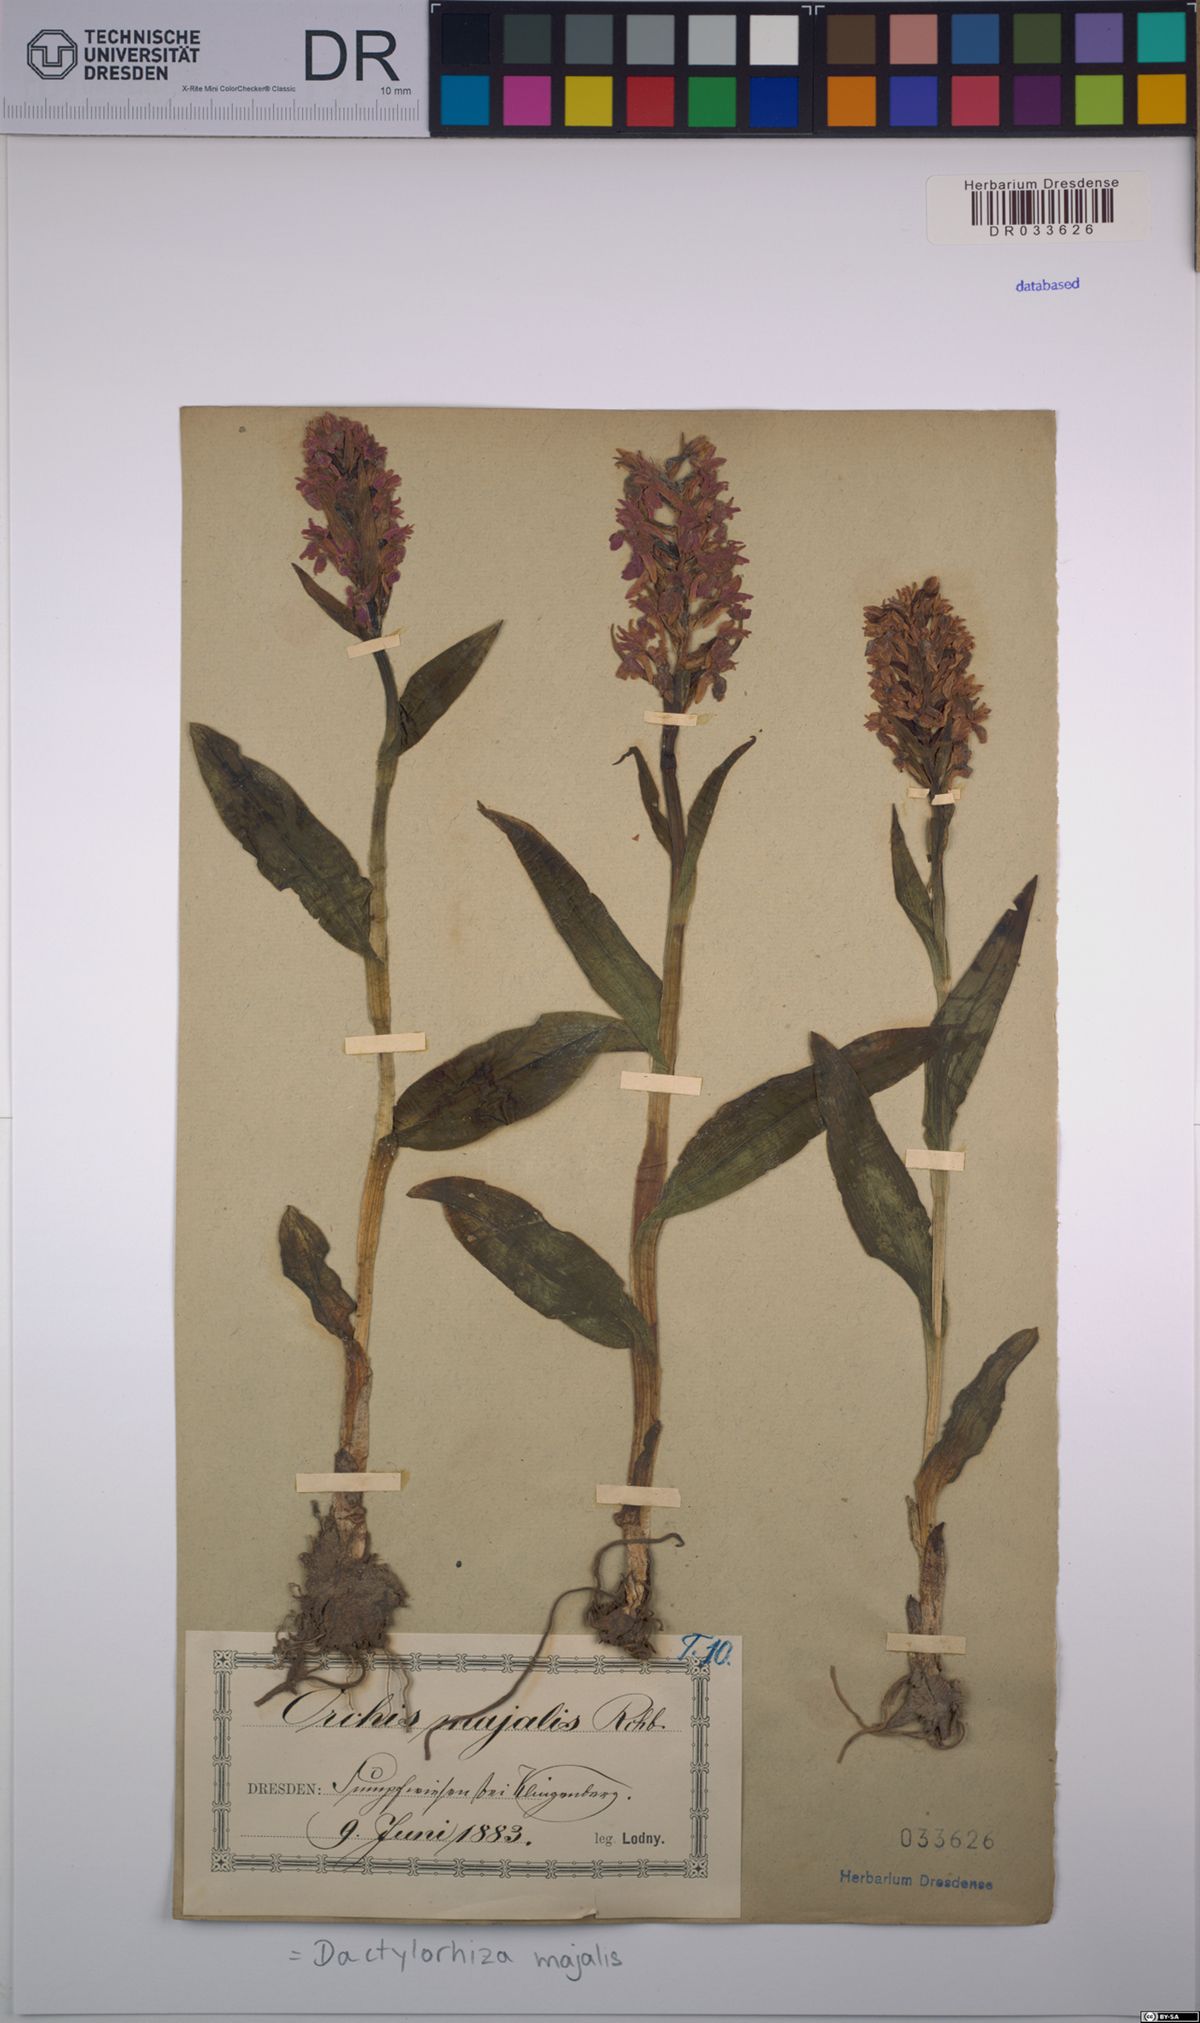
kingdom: Plantae
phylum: Tracheophyta
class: Liliopsida
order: Asparagales
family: Orchidaceae
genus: Dactylorhiza
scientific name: Dactylorhiza majalis
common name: Marsh orchid
